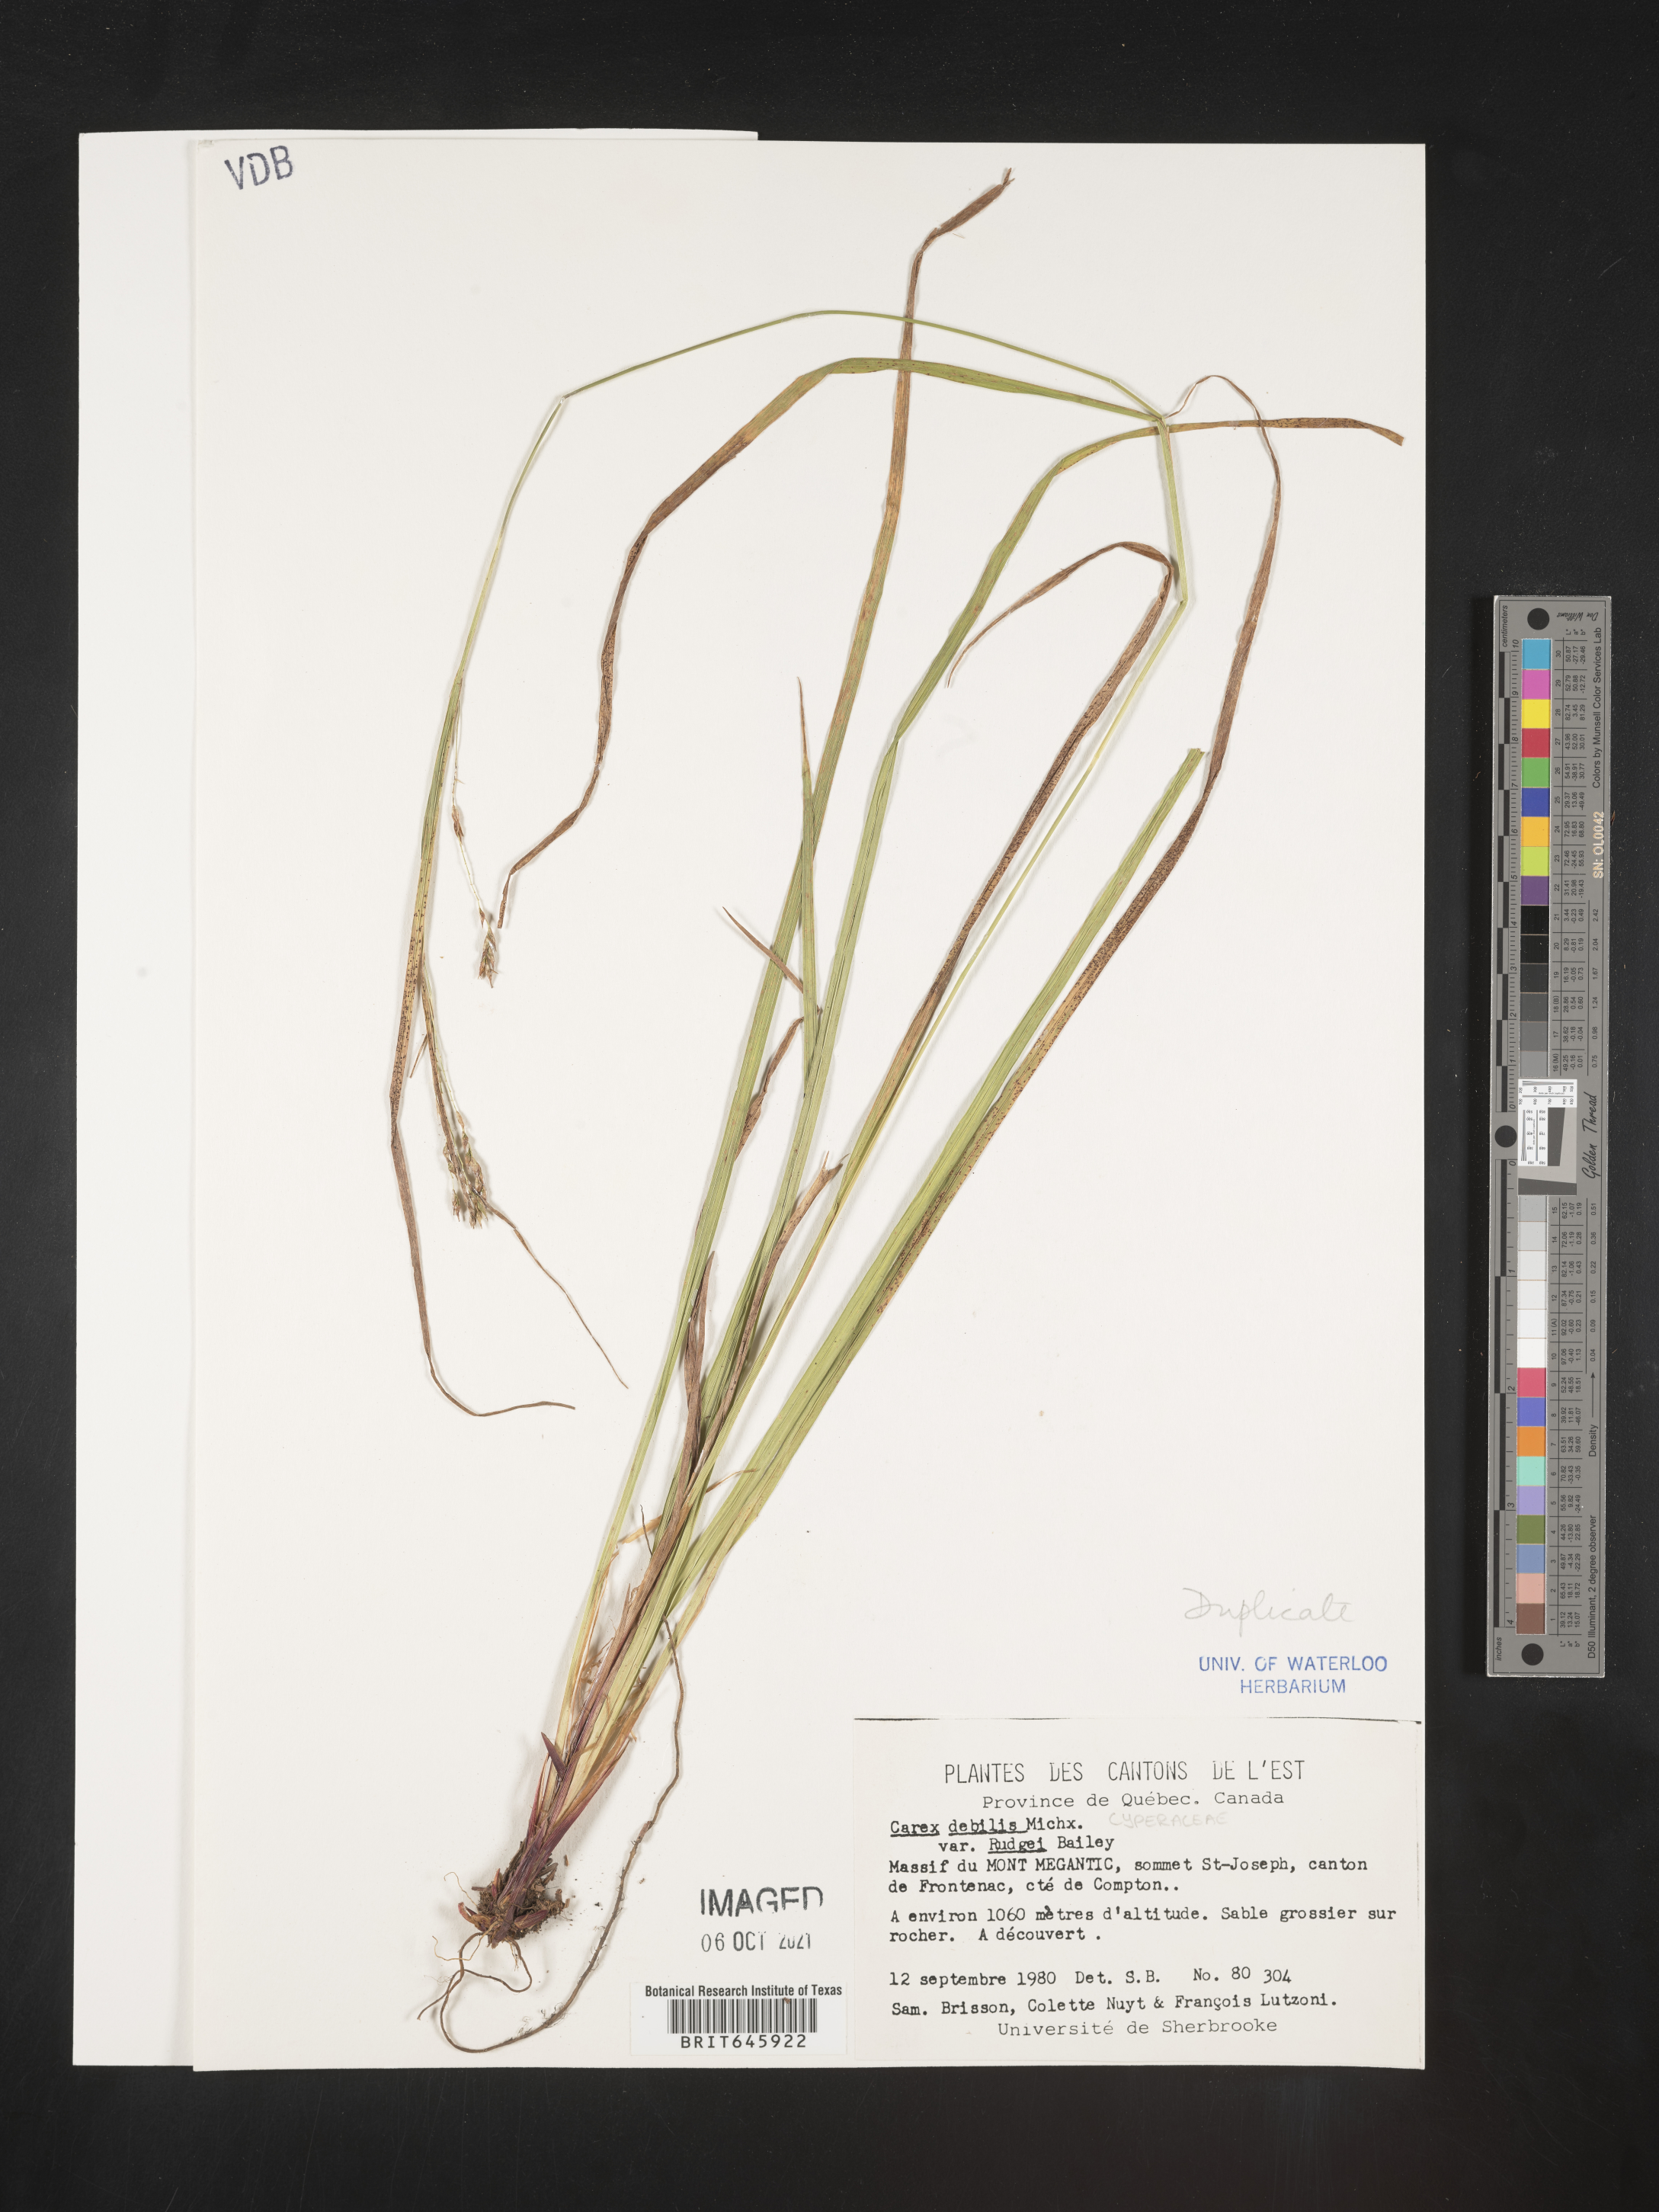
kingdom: Plantae
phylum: Tracheophyta
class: Liliopsida
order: Poales
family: Cyperaceae
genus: Carex
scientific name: Carex debilis
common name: White-edge sedge
